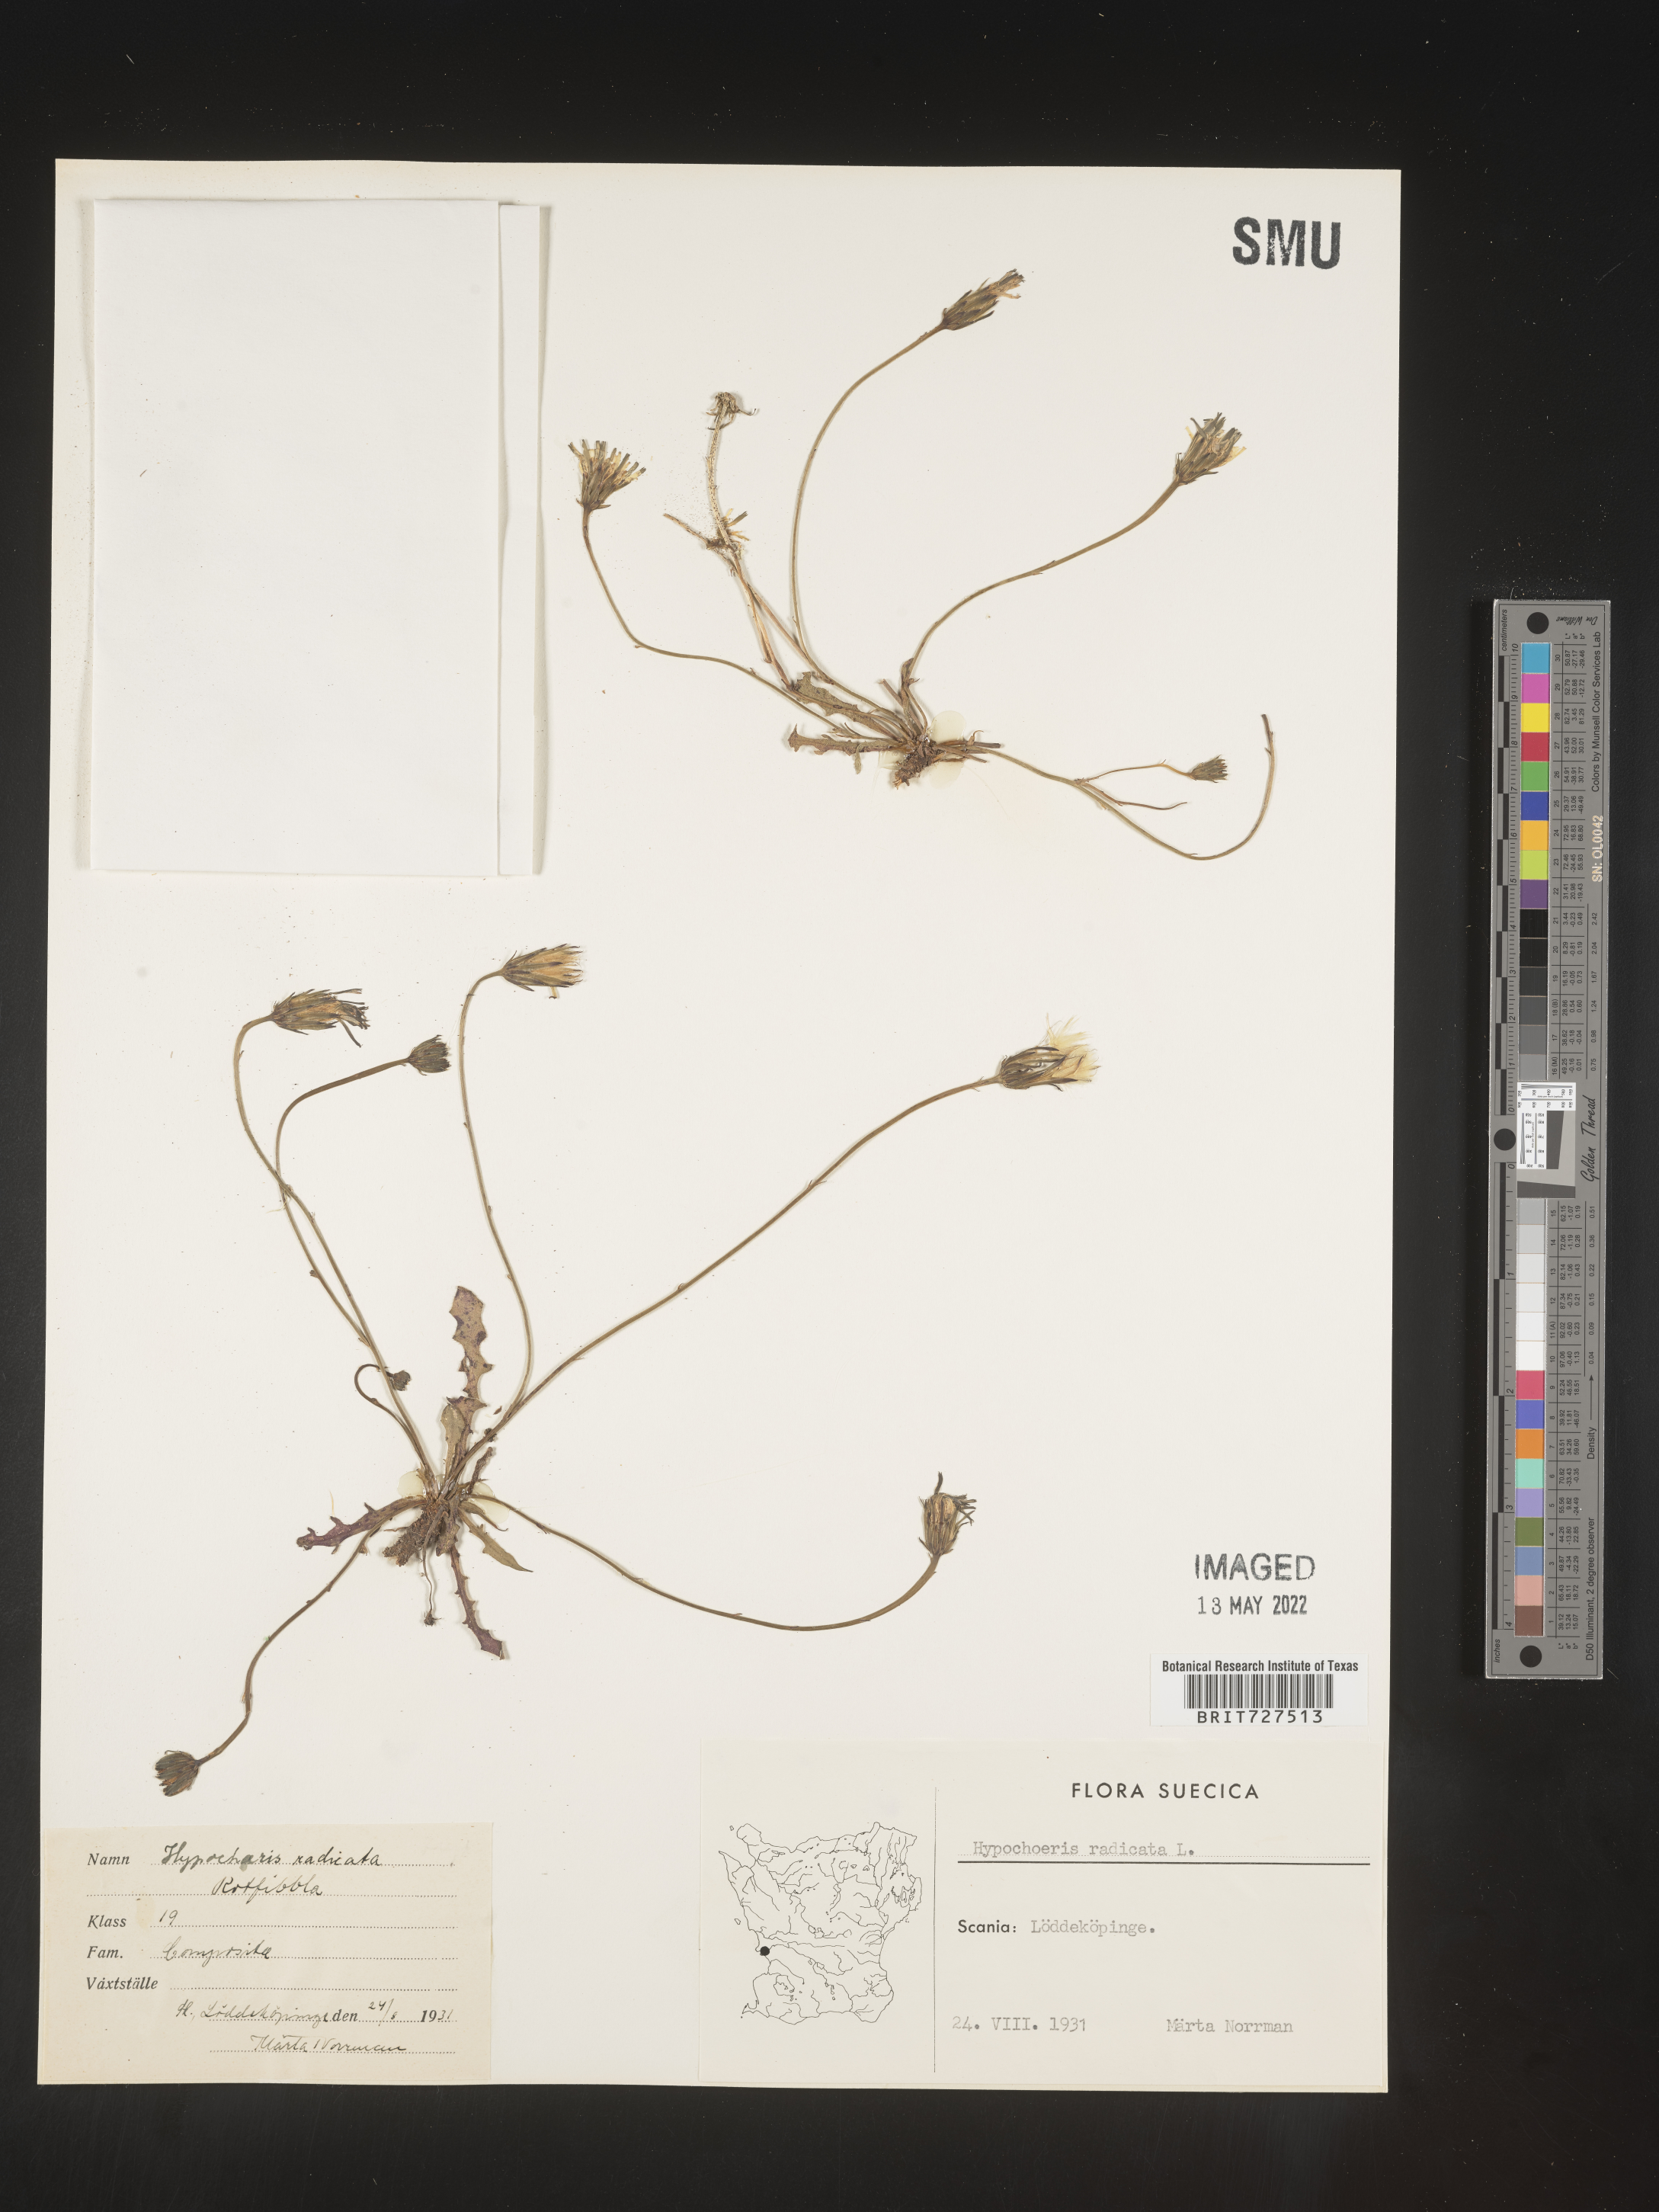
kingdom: Plantae
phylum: Tracheophyta
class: Magnoliopsida
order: Asterales
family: Asteraceae
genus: Hypochaeris
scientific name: Hypochaeris
